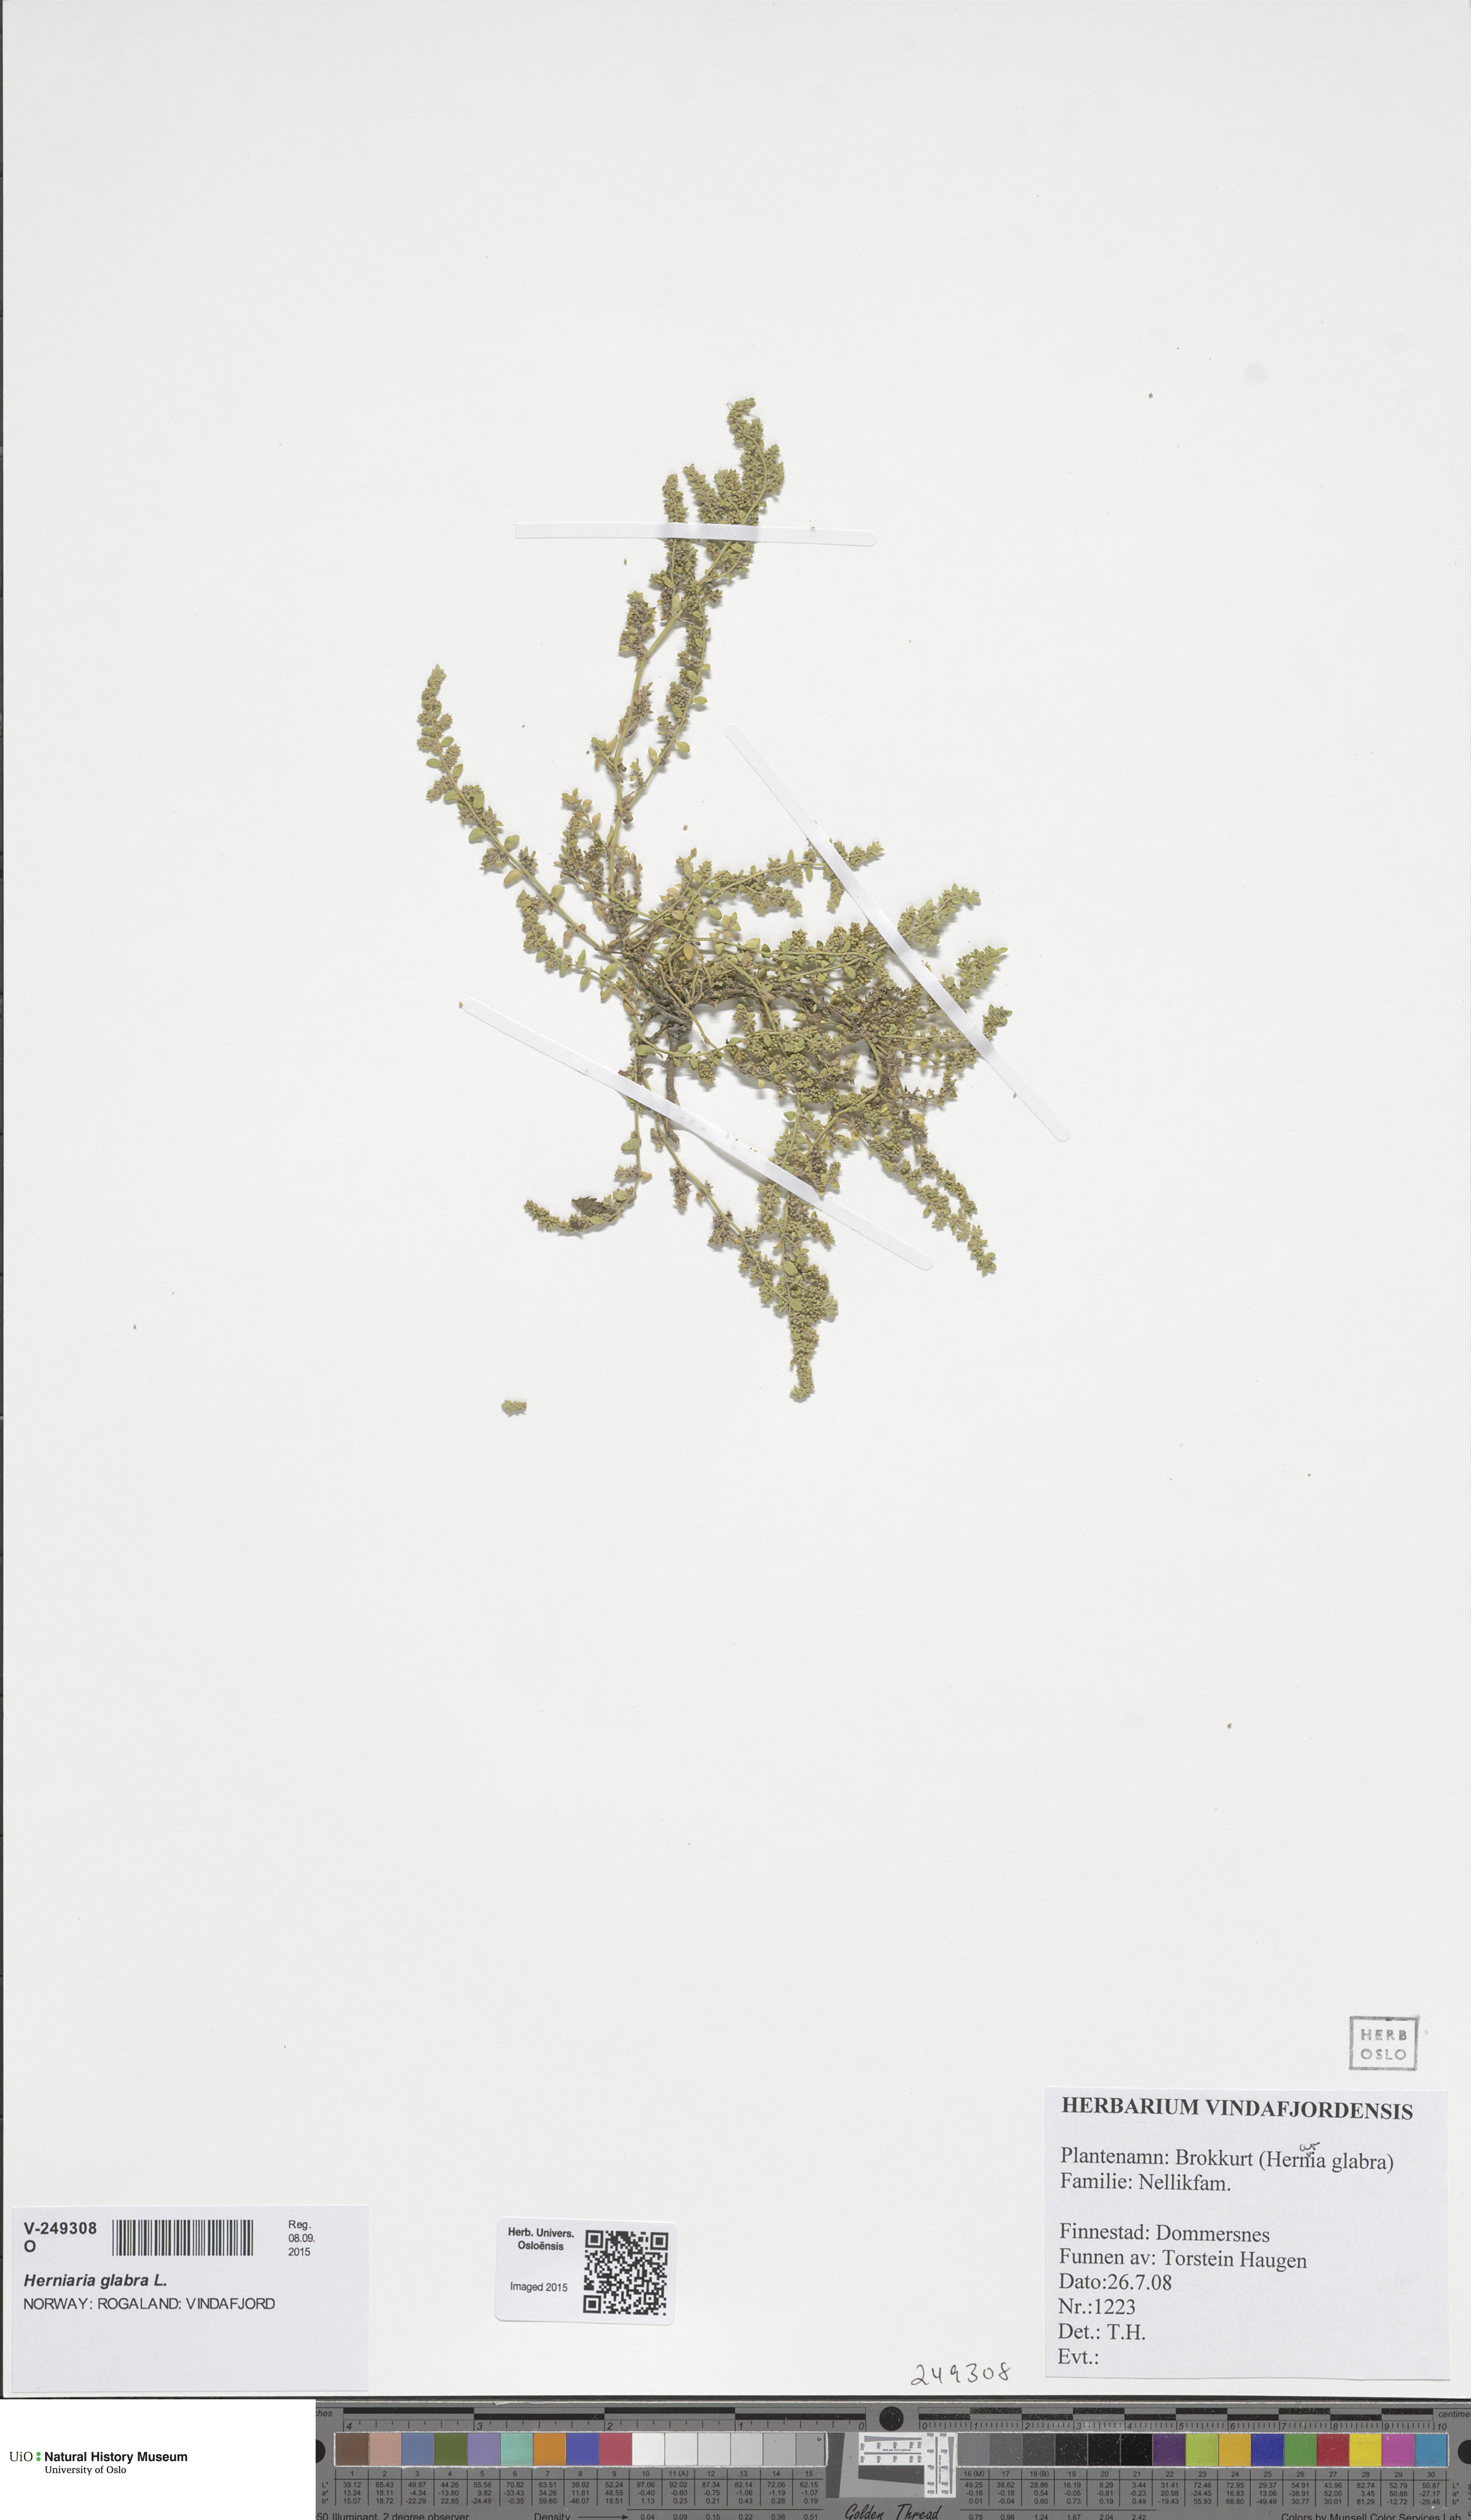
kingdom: Plantae
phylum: Tracheophyta
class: Magnoliopsida
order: Caryophyllales
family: Caryophyllaceae
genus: Herniaria
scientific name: Herniaria glabra
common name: Smooth rupturewort
